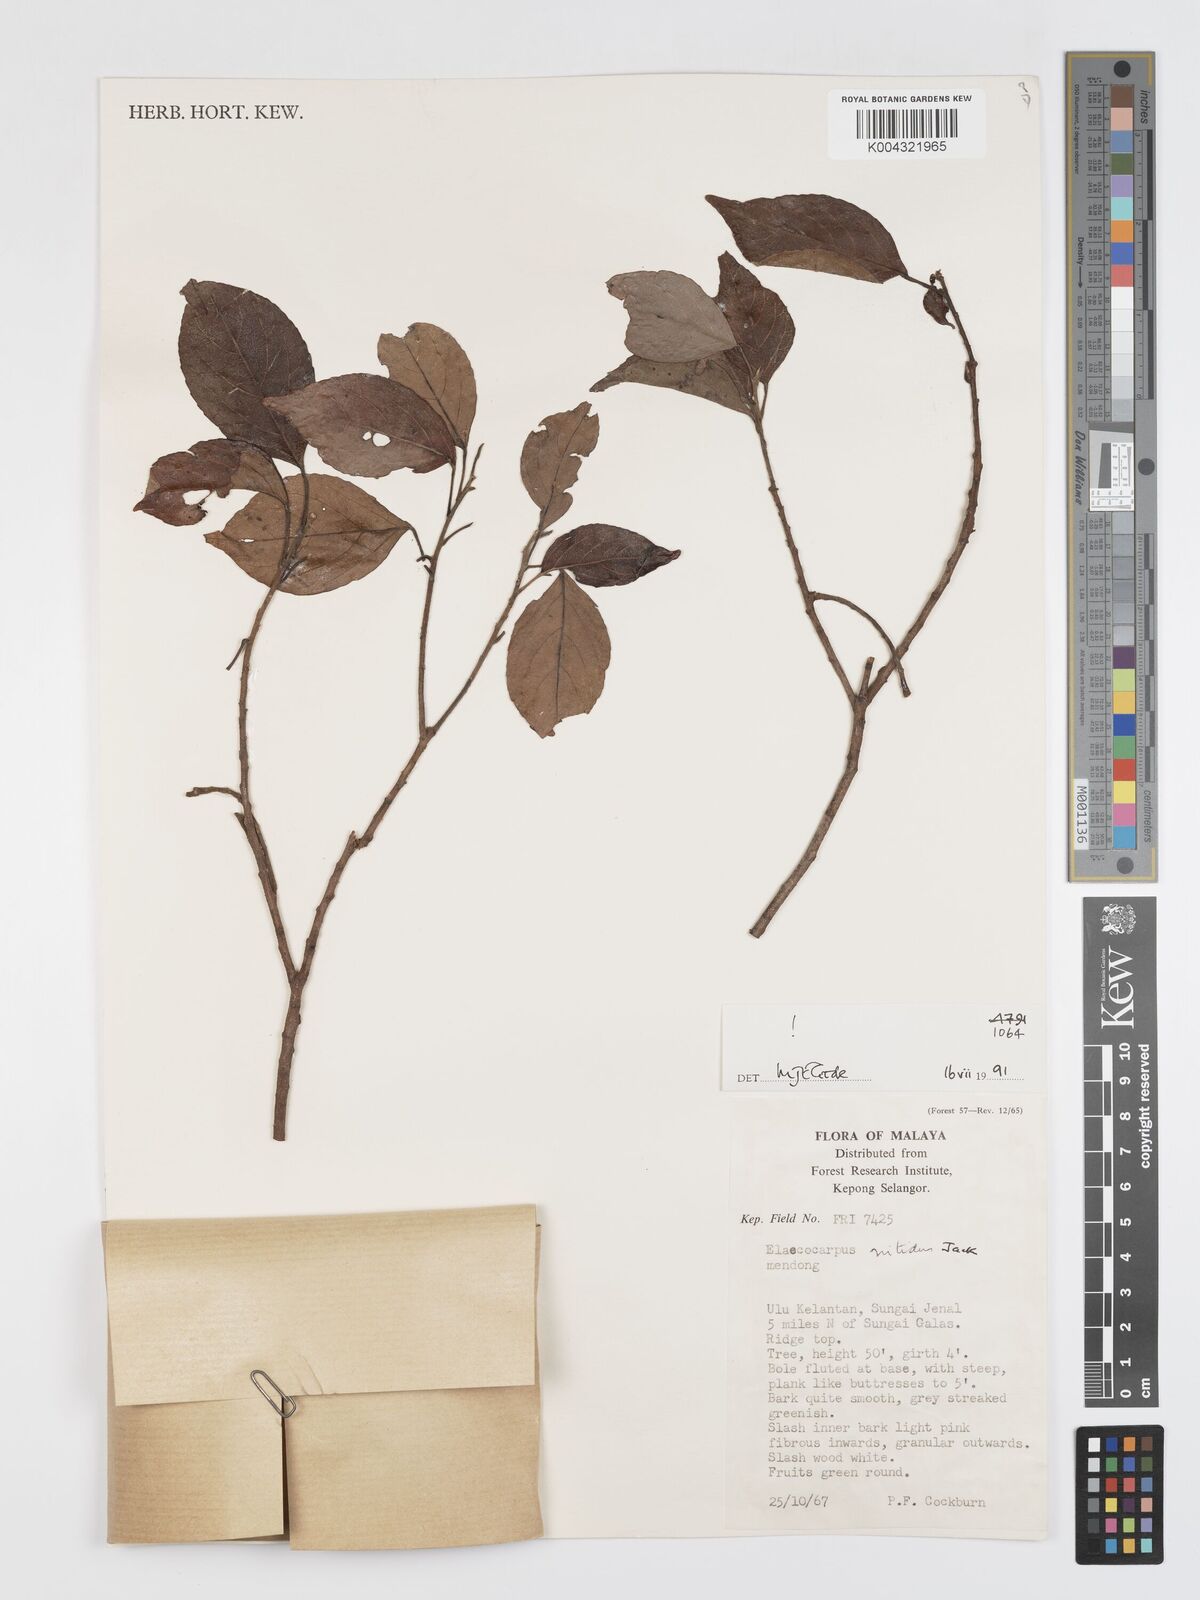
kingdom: Plantae
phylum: Tracheophyta
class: Magnoliopsida
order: Oxalidales
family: Elaeocarpaceae
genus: Elaeocarpus
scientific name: Elaeocarpus nitidus
